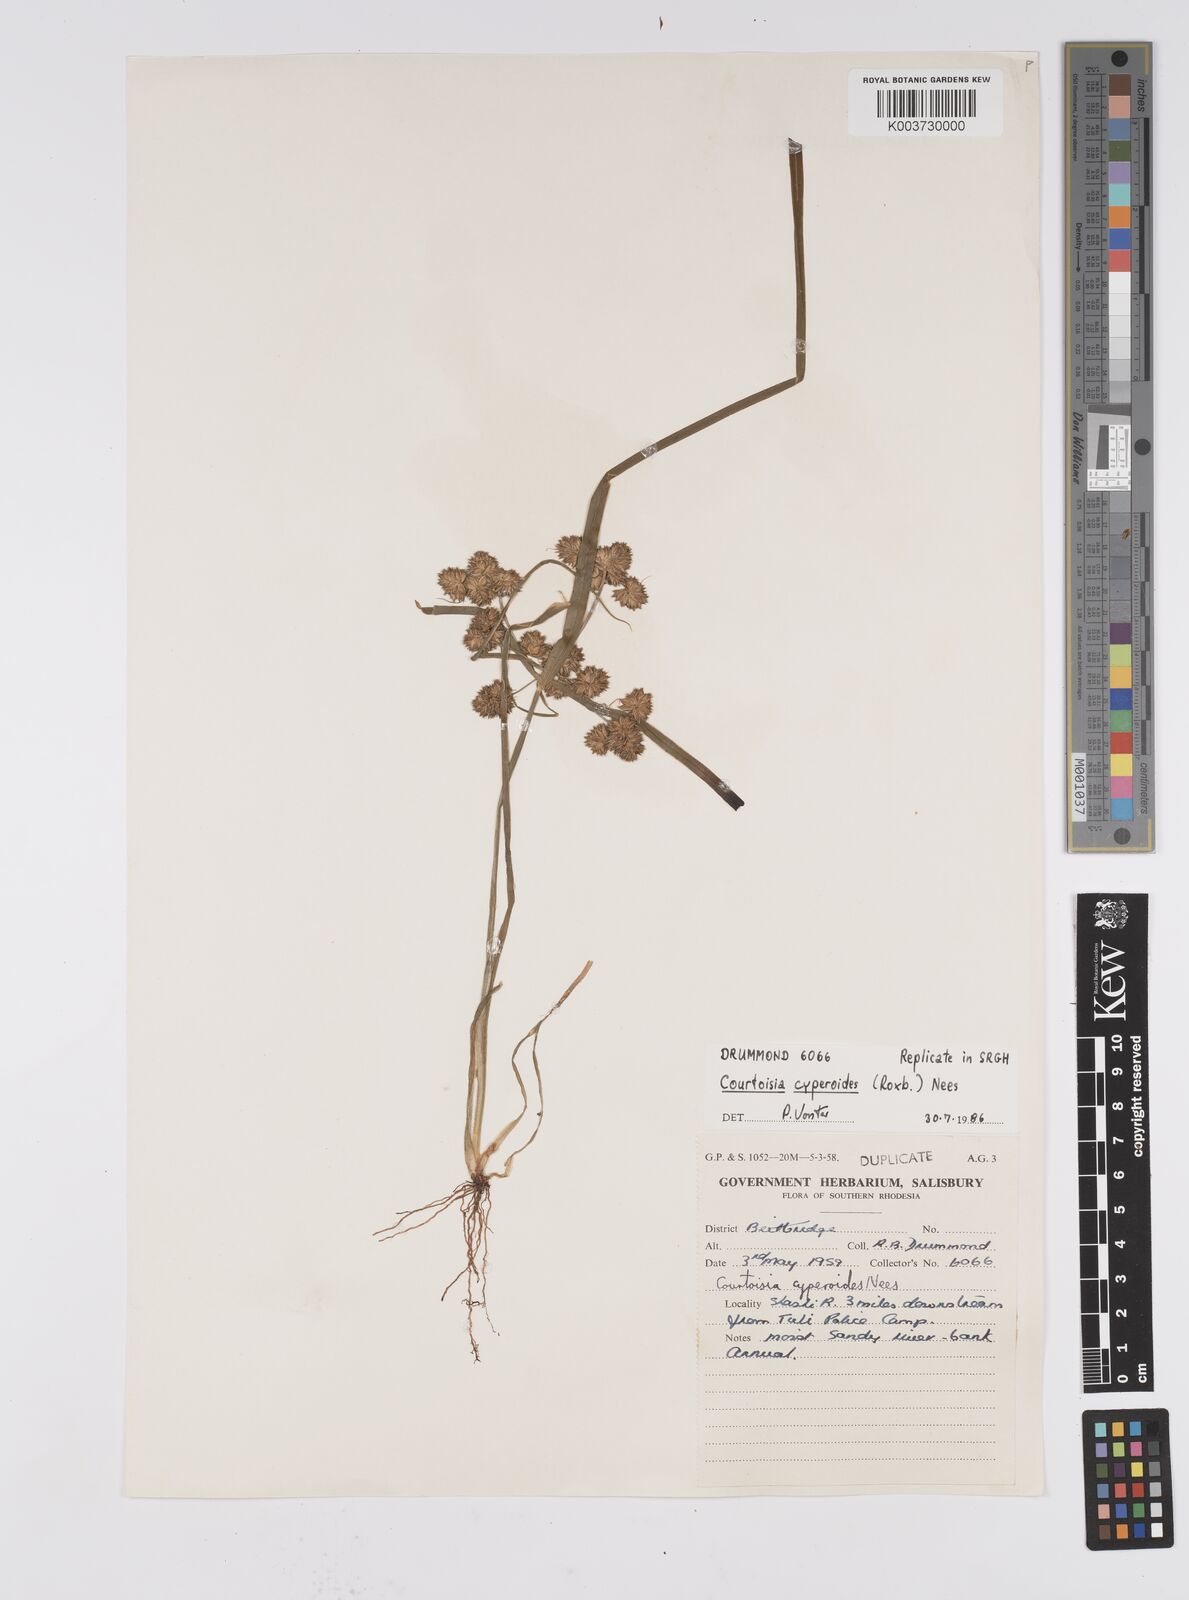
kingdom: Plantae
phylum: Tracheophyta
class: Liliopsida
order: Poales
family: Cyperaceae
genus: Cyperus
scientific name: Cyperus cyperoides
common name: Pacific island flat sedge
